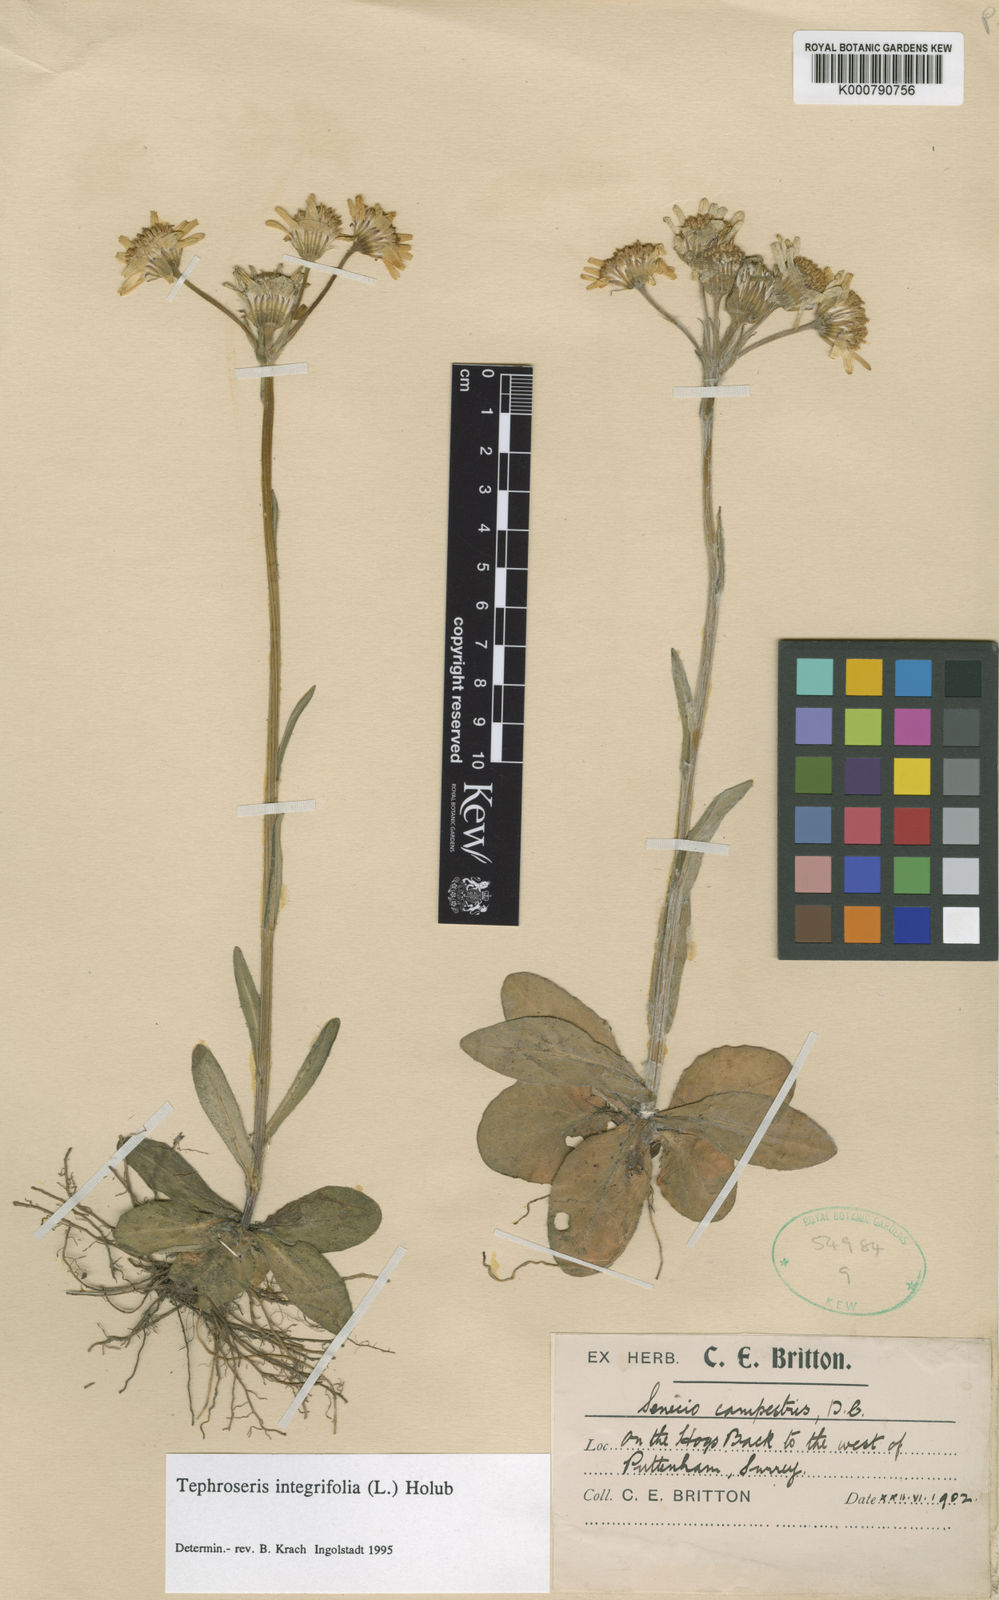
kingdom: Plantae
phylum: Tracheophyta
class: Magnoliopsida
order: Asterales
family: Asteraceae
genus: Tephroseris
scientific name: Tephroseris integrifolia
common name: Field fleawort
